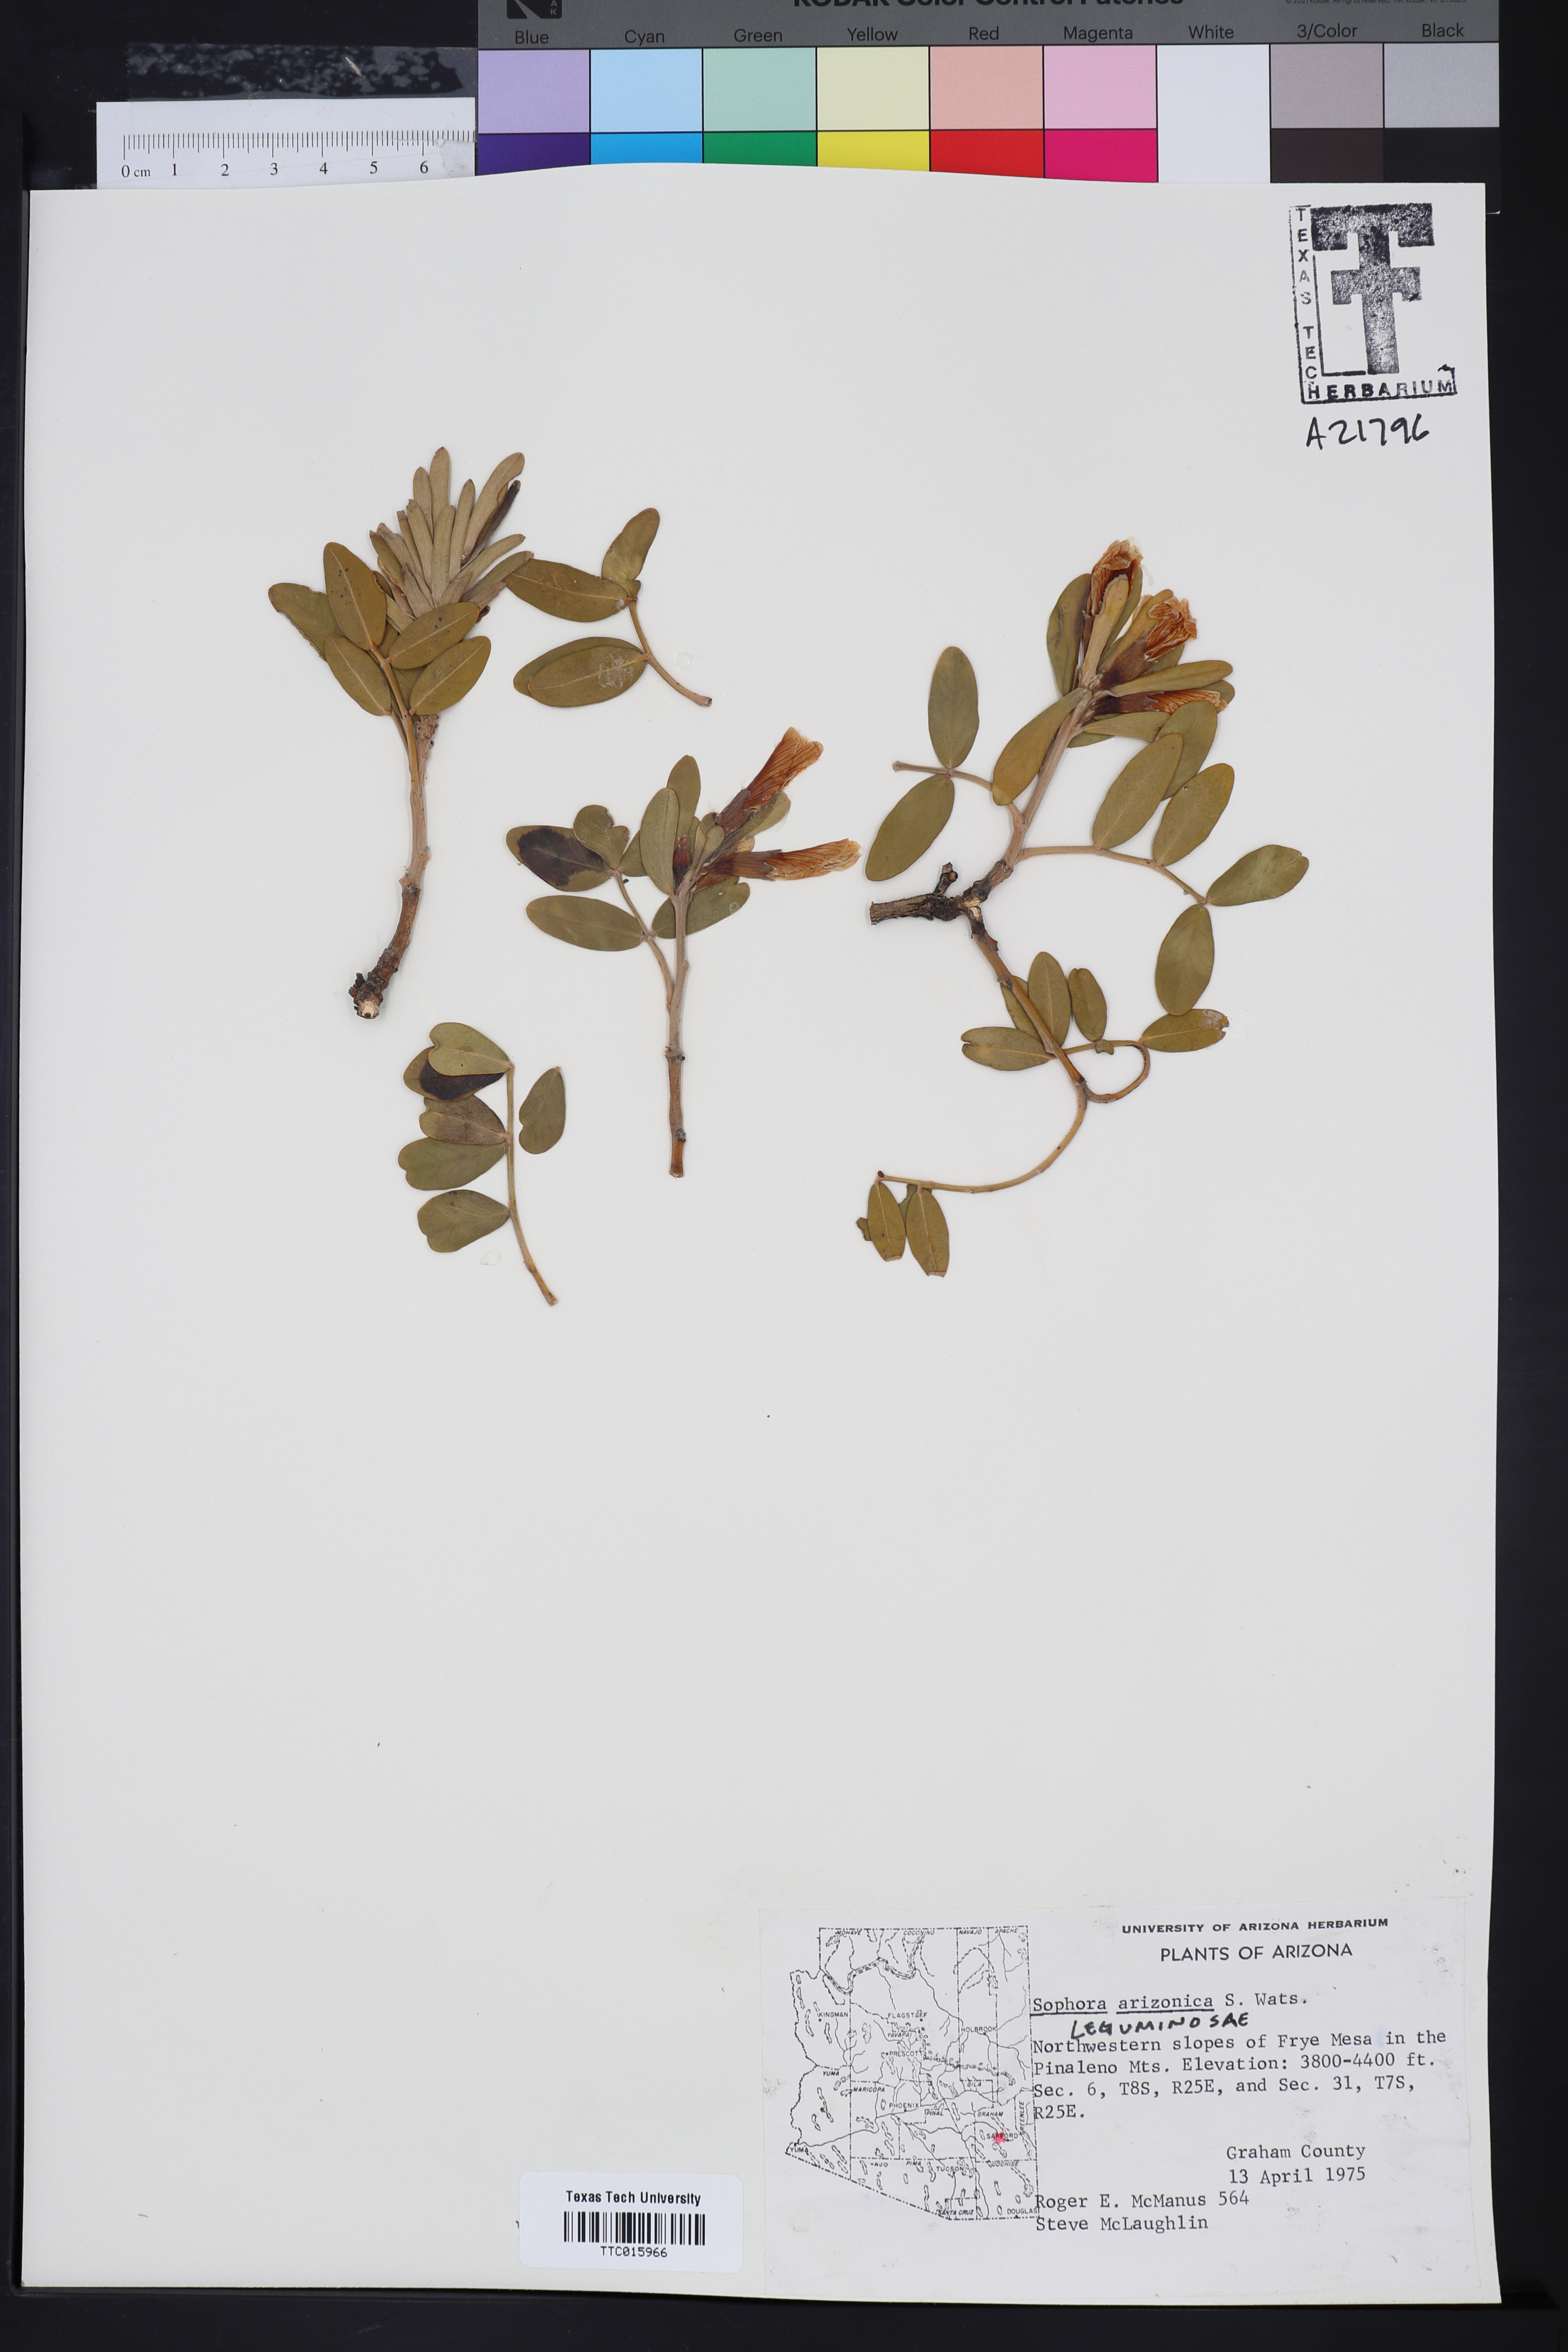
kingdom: Plantae
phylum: Tracheophyta
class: Magnoliopsida
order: Fabales
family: Fabaceae
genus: Dermatophyllum
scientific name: Dermatophyllum arizonicum
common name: Arizona necklace
